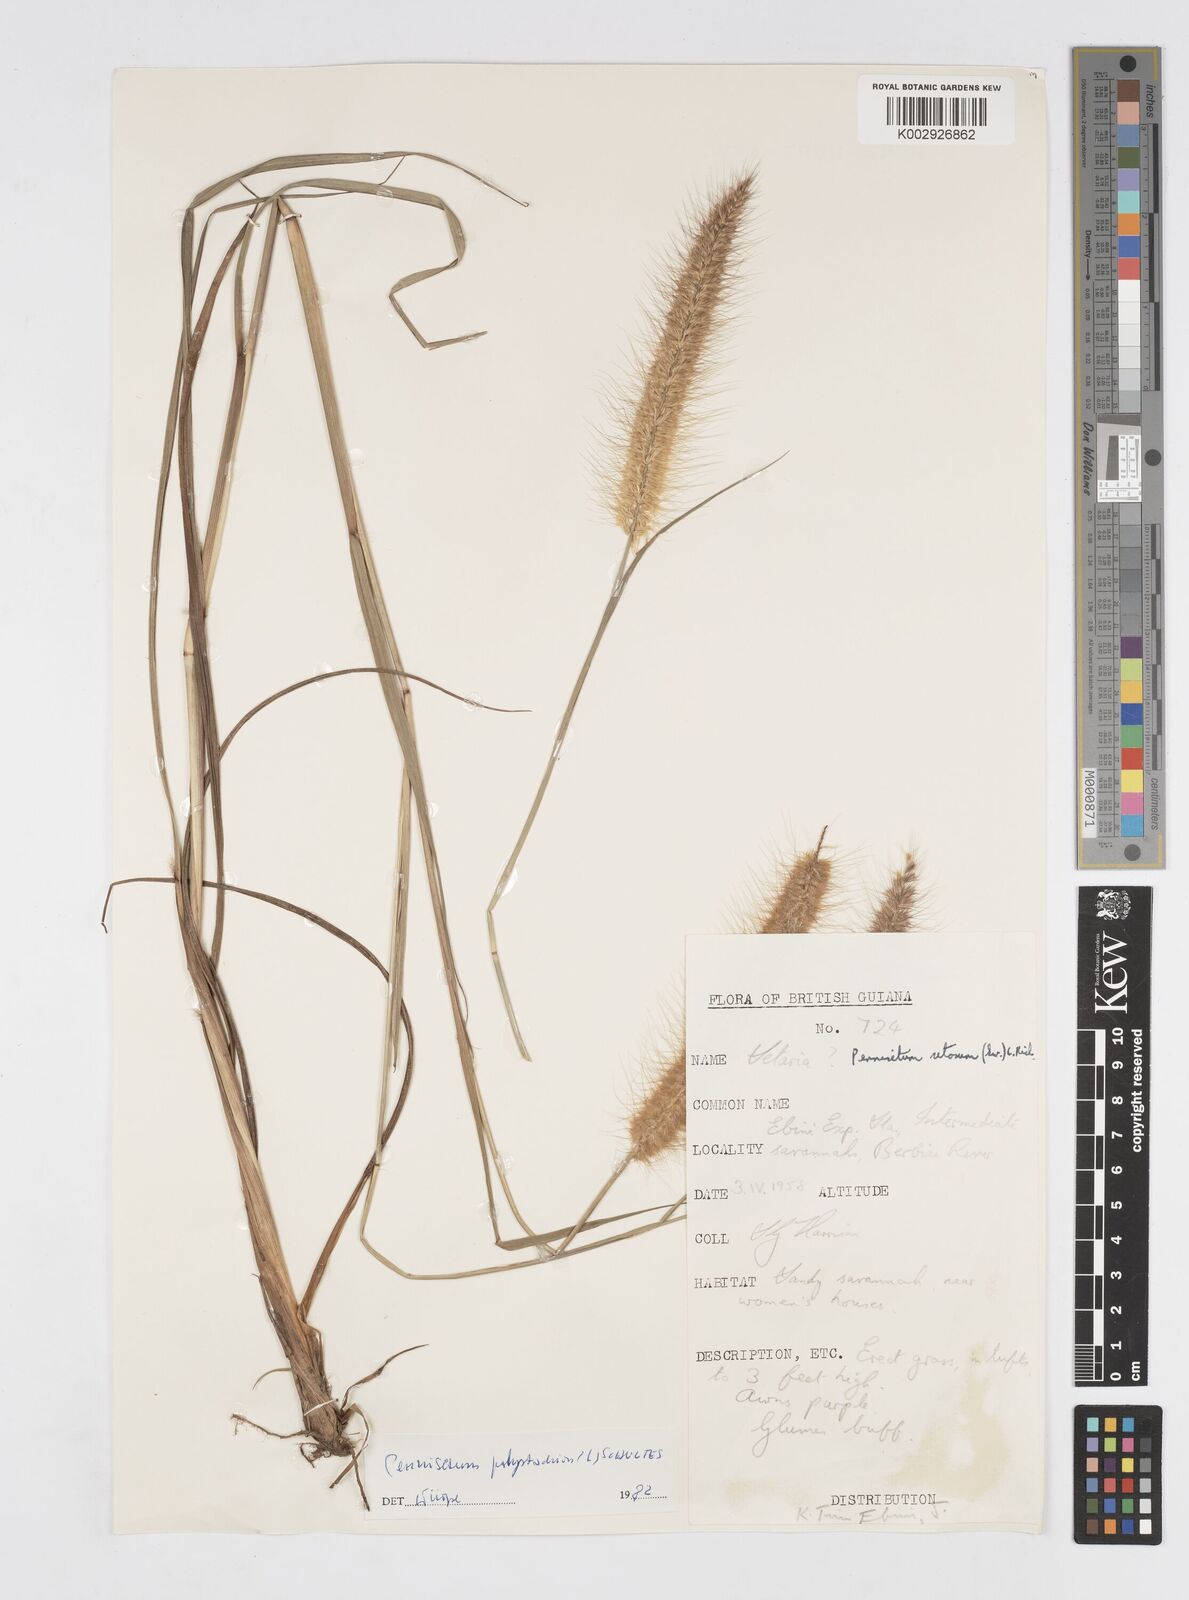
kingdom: Plantae
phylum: Tracheophyta
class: Liliopsida
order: Poales
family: Poaceae
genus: Cenchrus
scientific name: Cenchrus setosus
